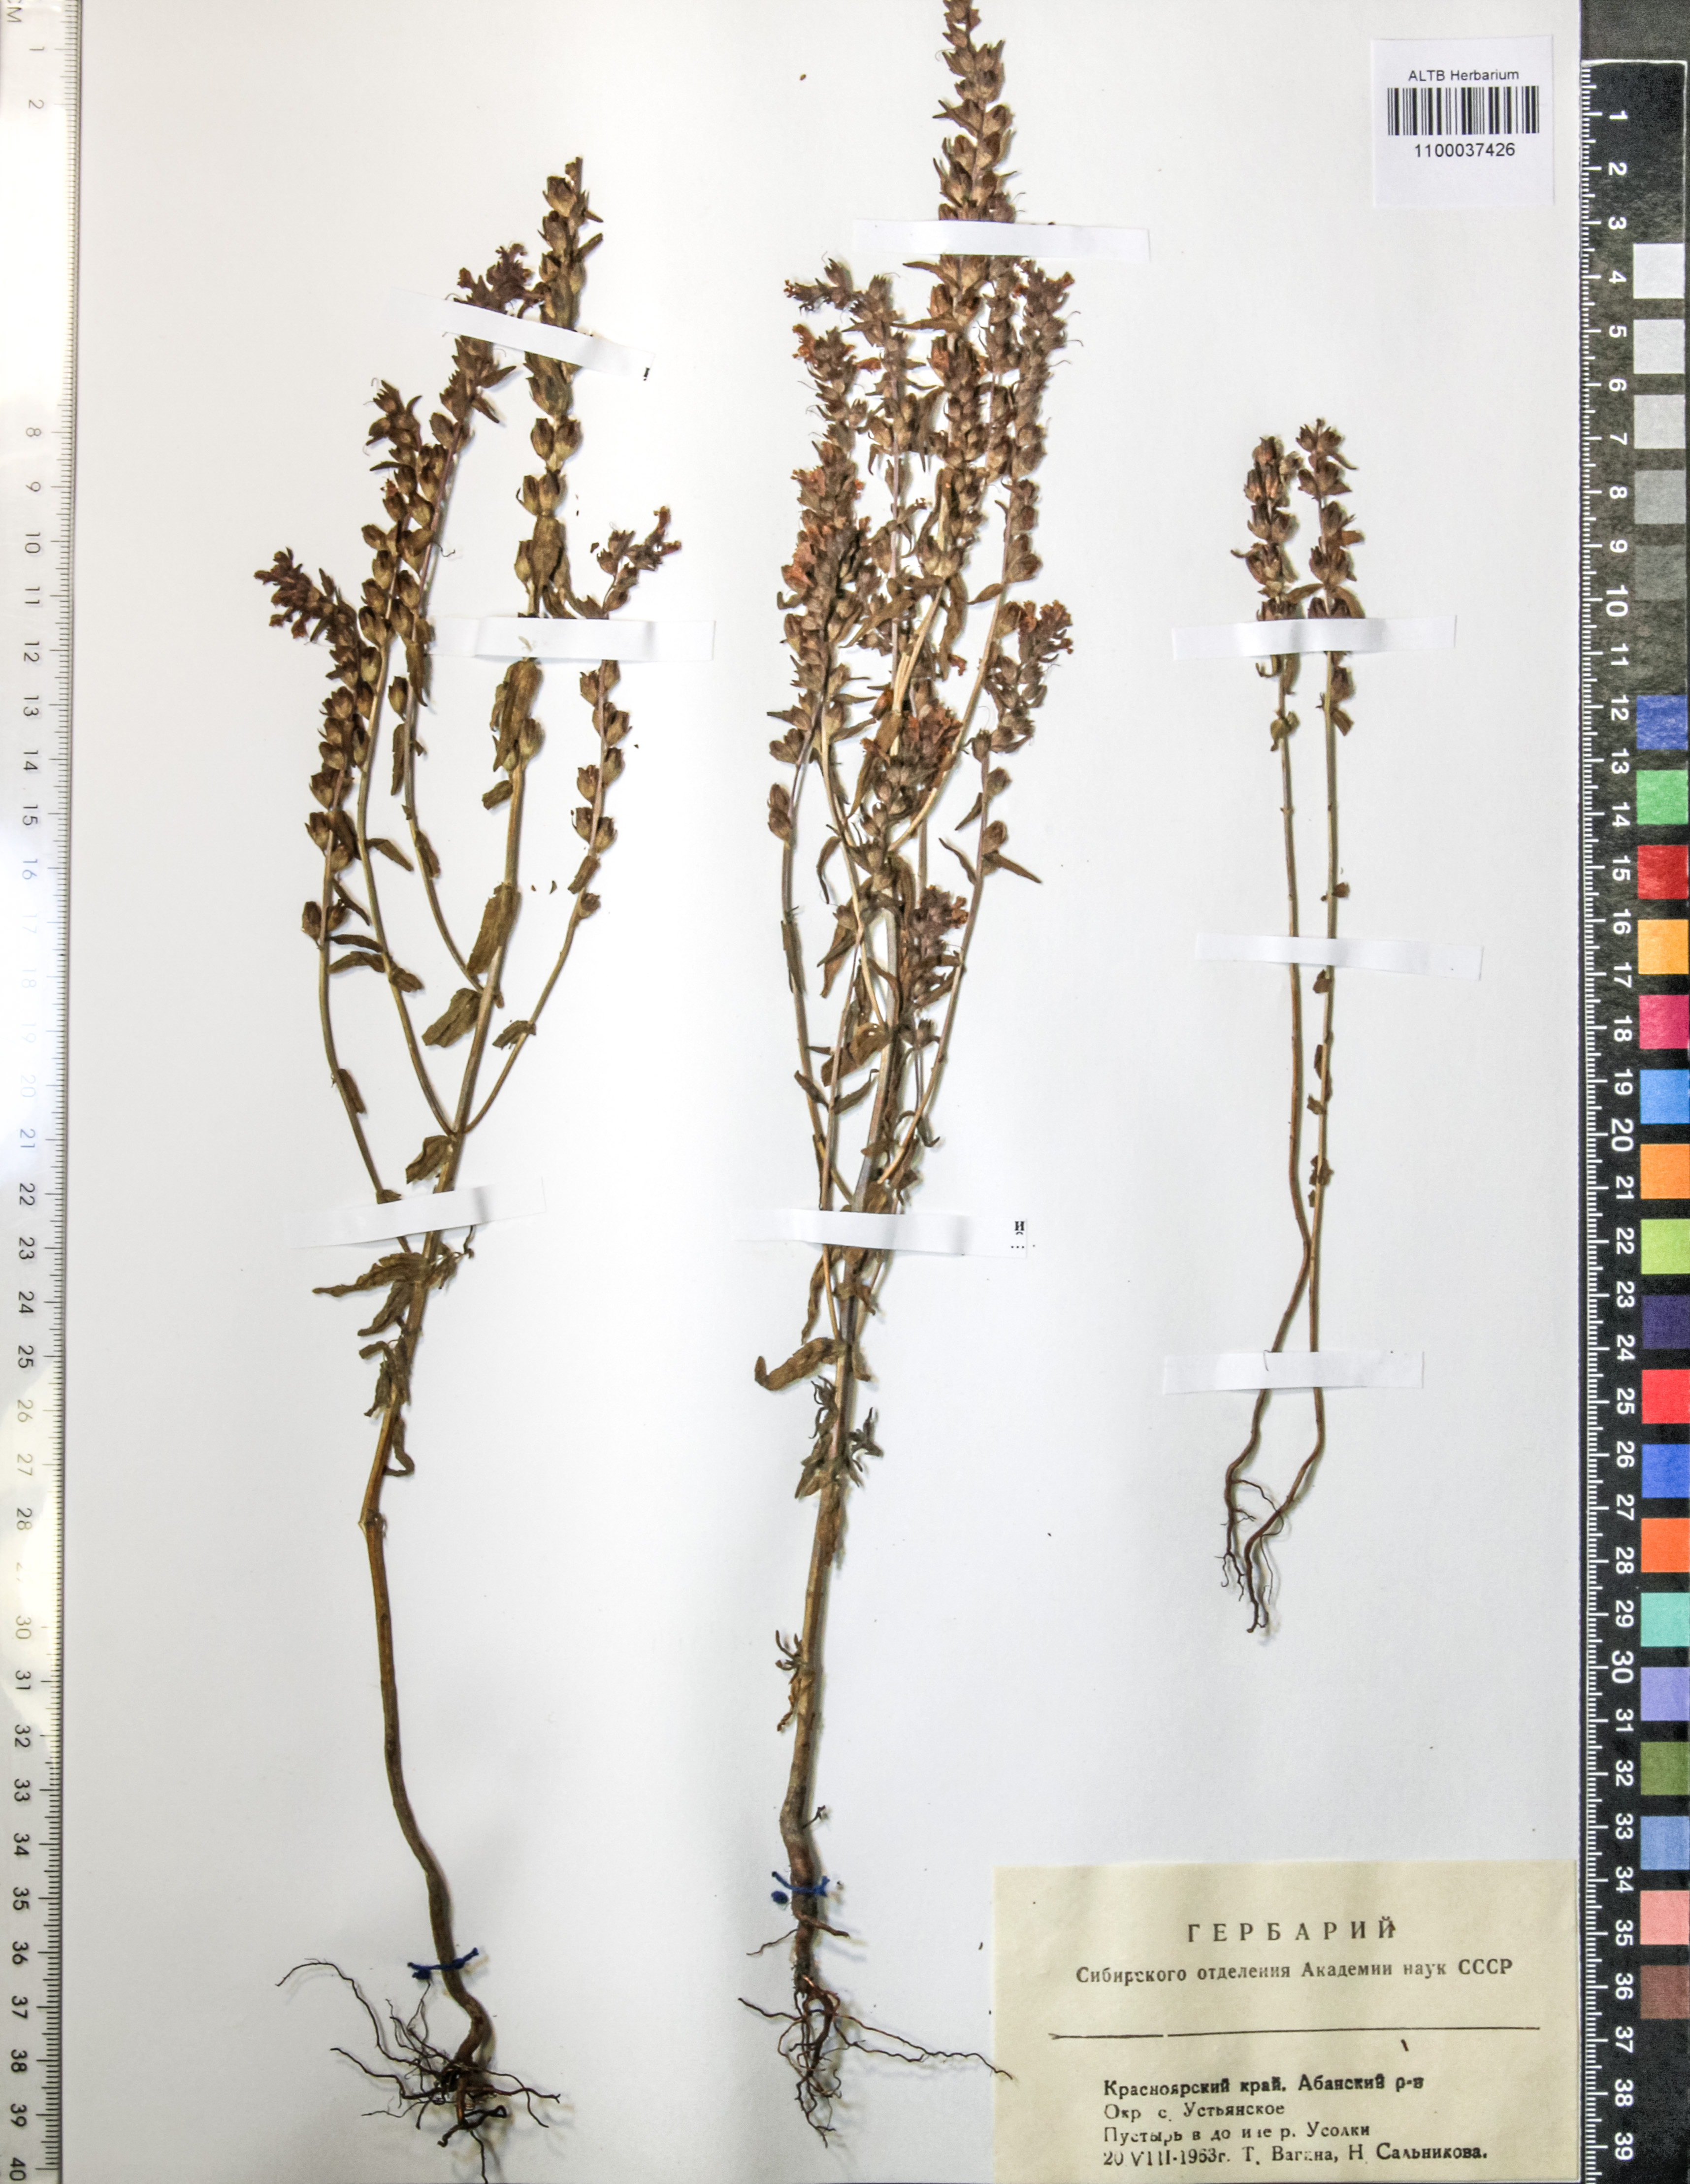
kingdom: Plantae
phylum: Tracheophyta
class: Magnoliopsida
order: Lamiales
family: Orobanchaceae
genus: Odontites
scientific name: Odontites vulgaris
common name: Broomrape
